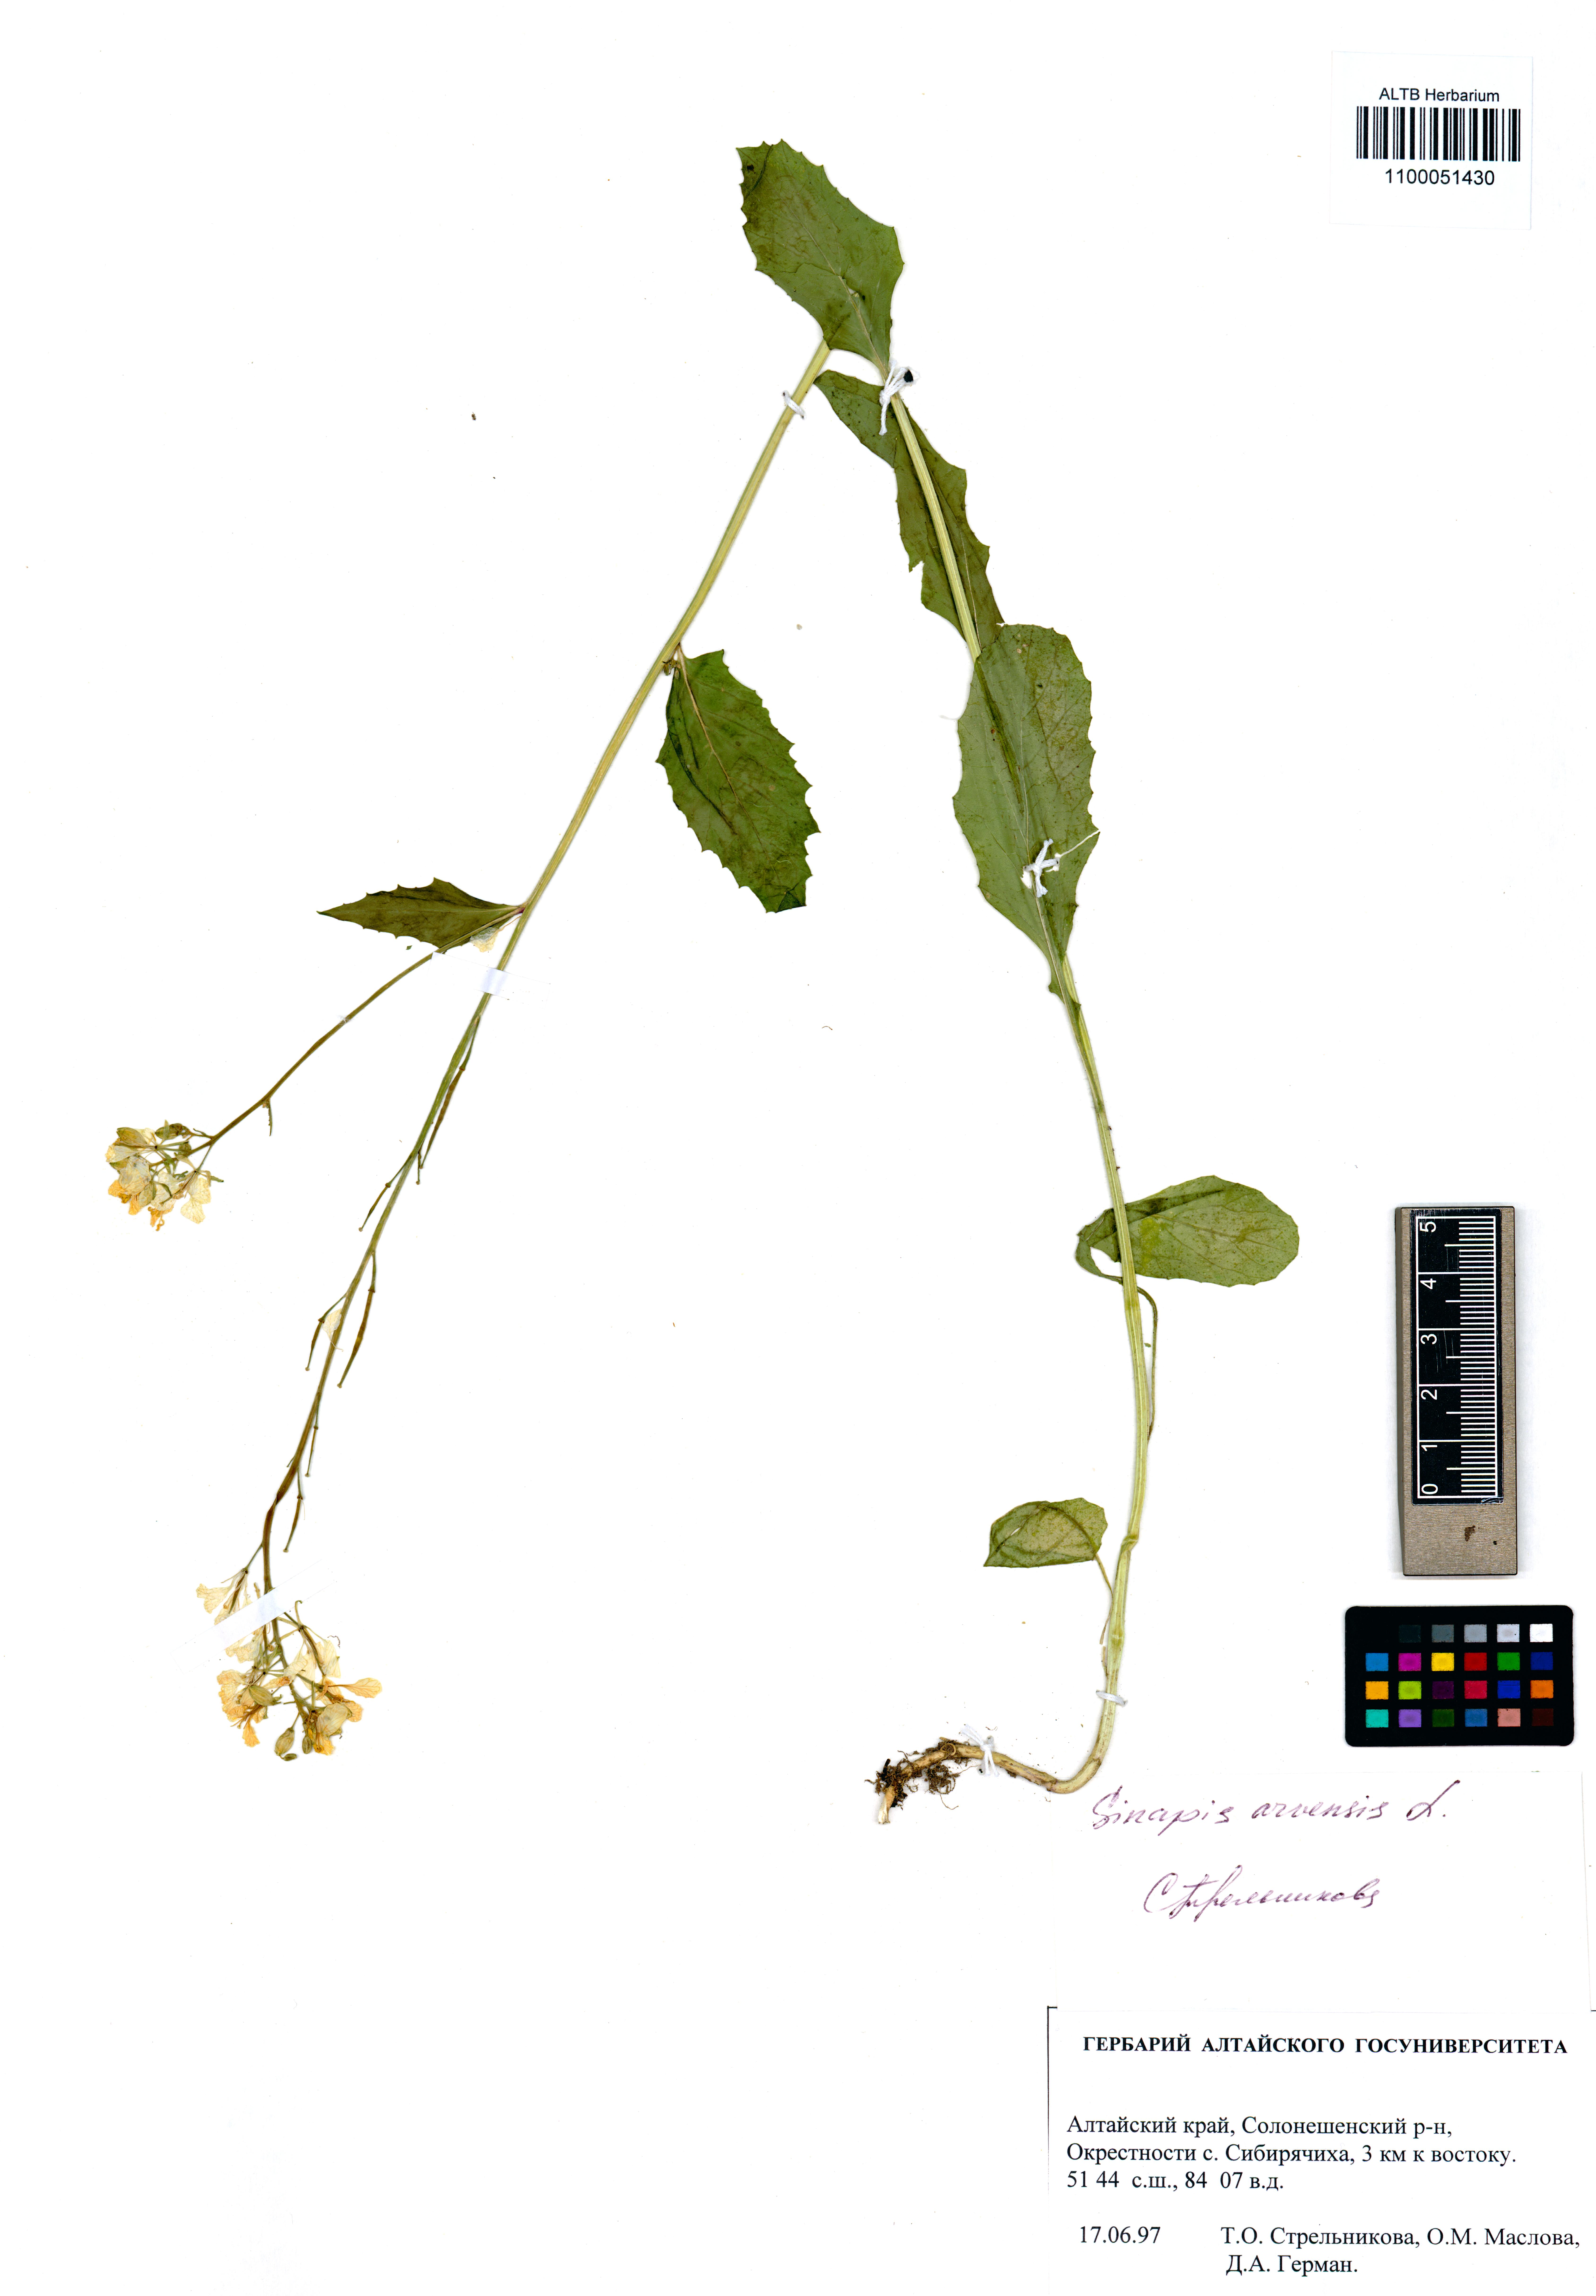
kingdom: Plantae
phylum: Tracheophyta
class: Magnoliopsida
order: Brassicales
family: Brassicaceae
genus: Sinapis
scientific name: Sinapis arvensis
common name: Charlock
